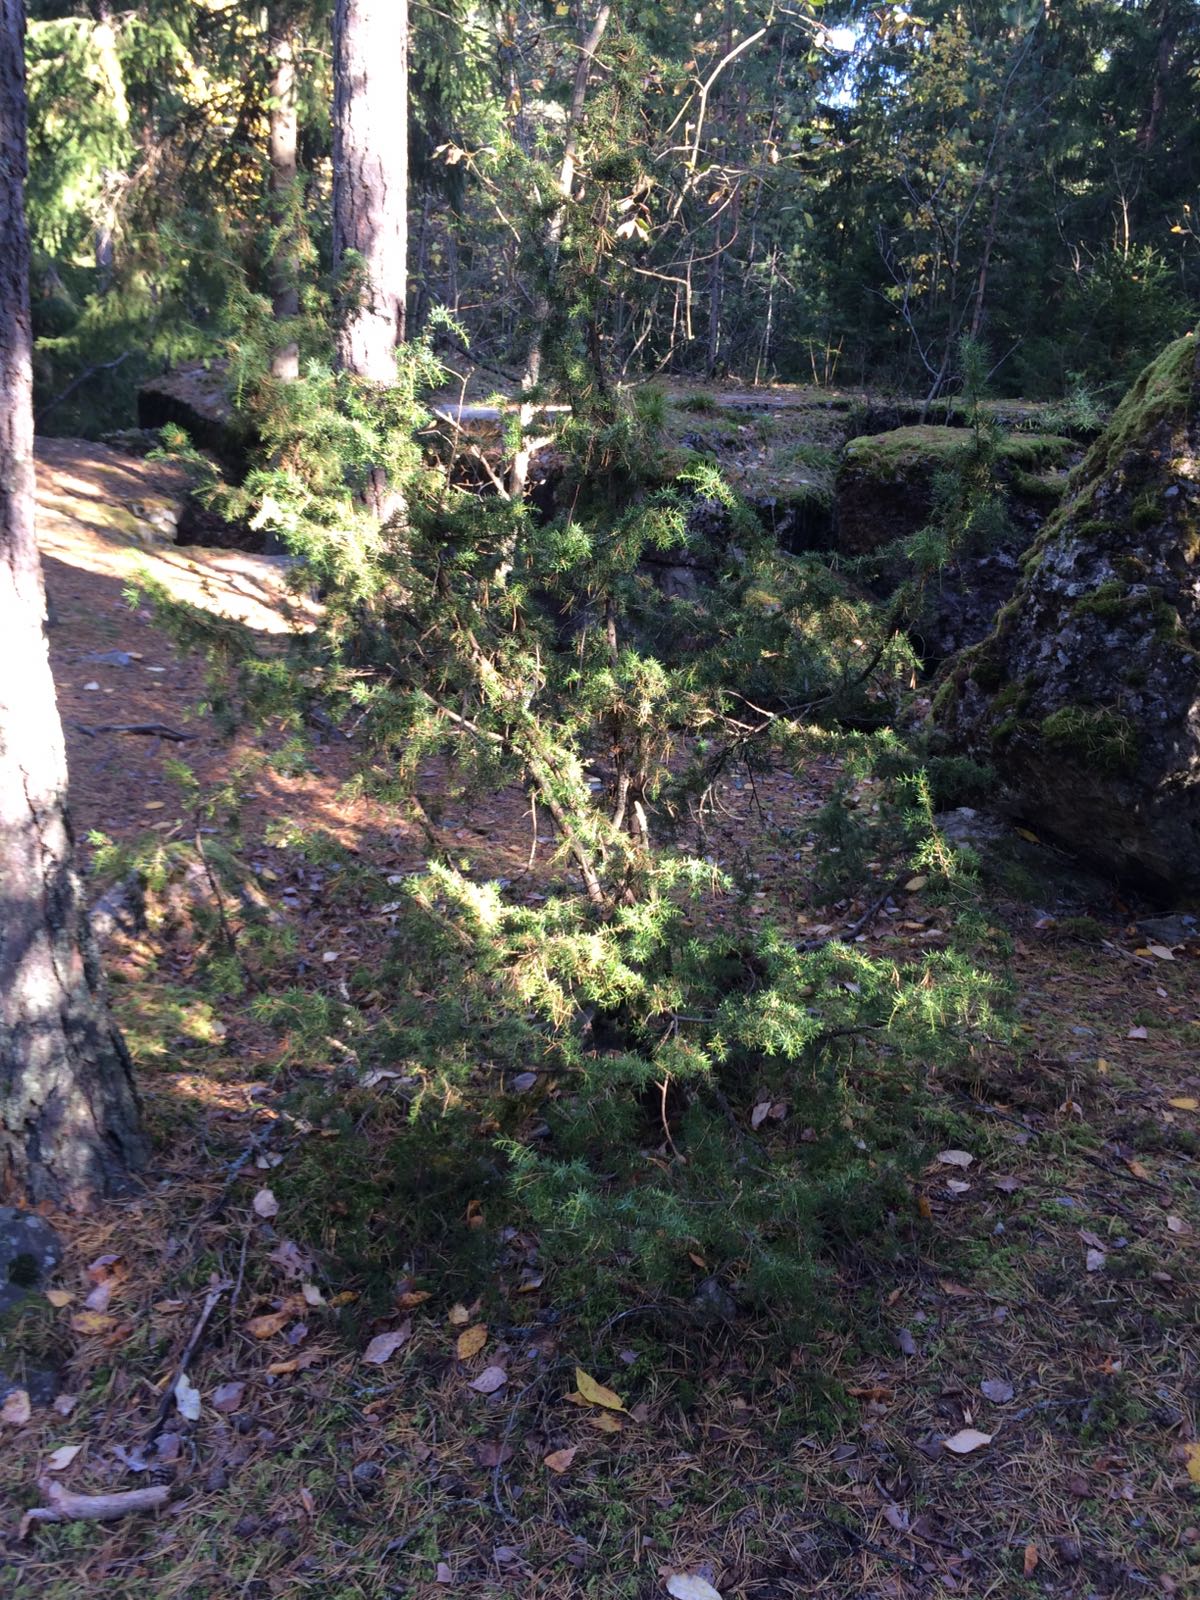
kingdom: Plantae
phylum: Tracheophyta
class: Pinopsida
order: Pinales
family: Cupressaceae
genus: Juniperus
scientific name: Juniperus communis
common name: Common juniper
